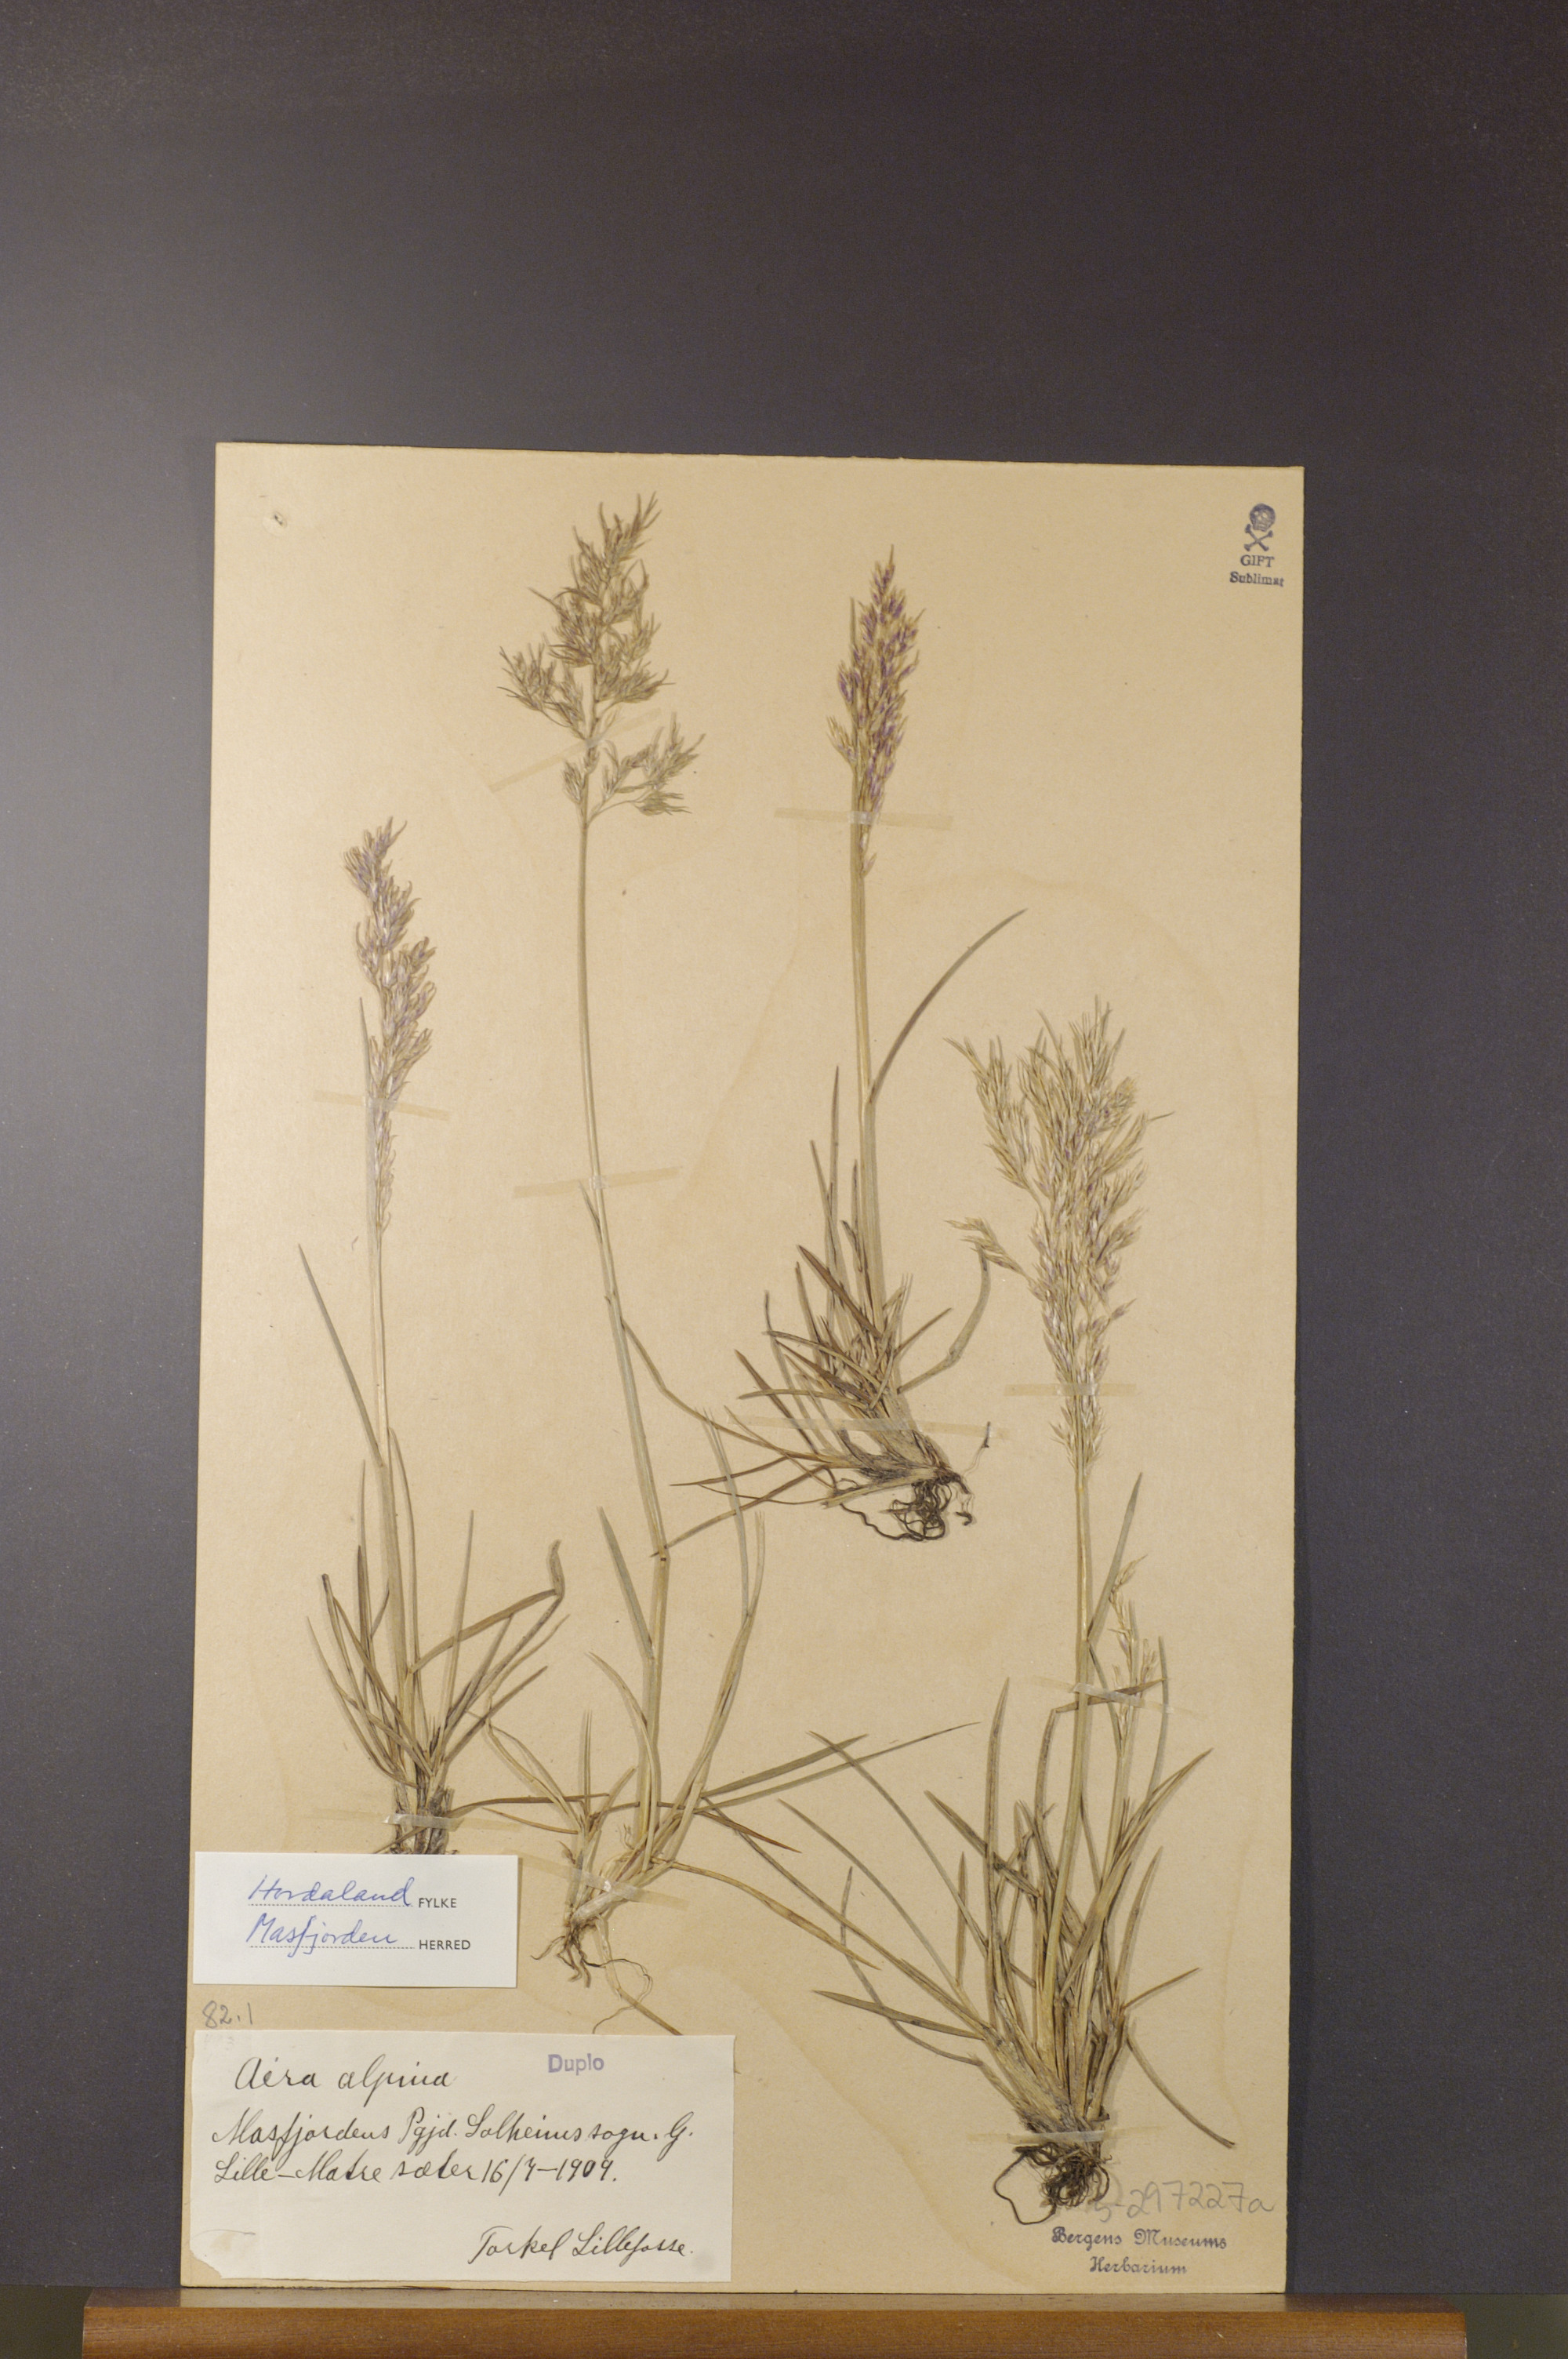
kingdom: Plantae
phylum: Tracheophyta
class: Liliopsida
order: Poales
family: Poaceae
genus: Deschampsia
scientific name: Deschampsia cespitosa
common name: Tufted hair-grass
